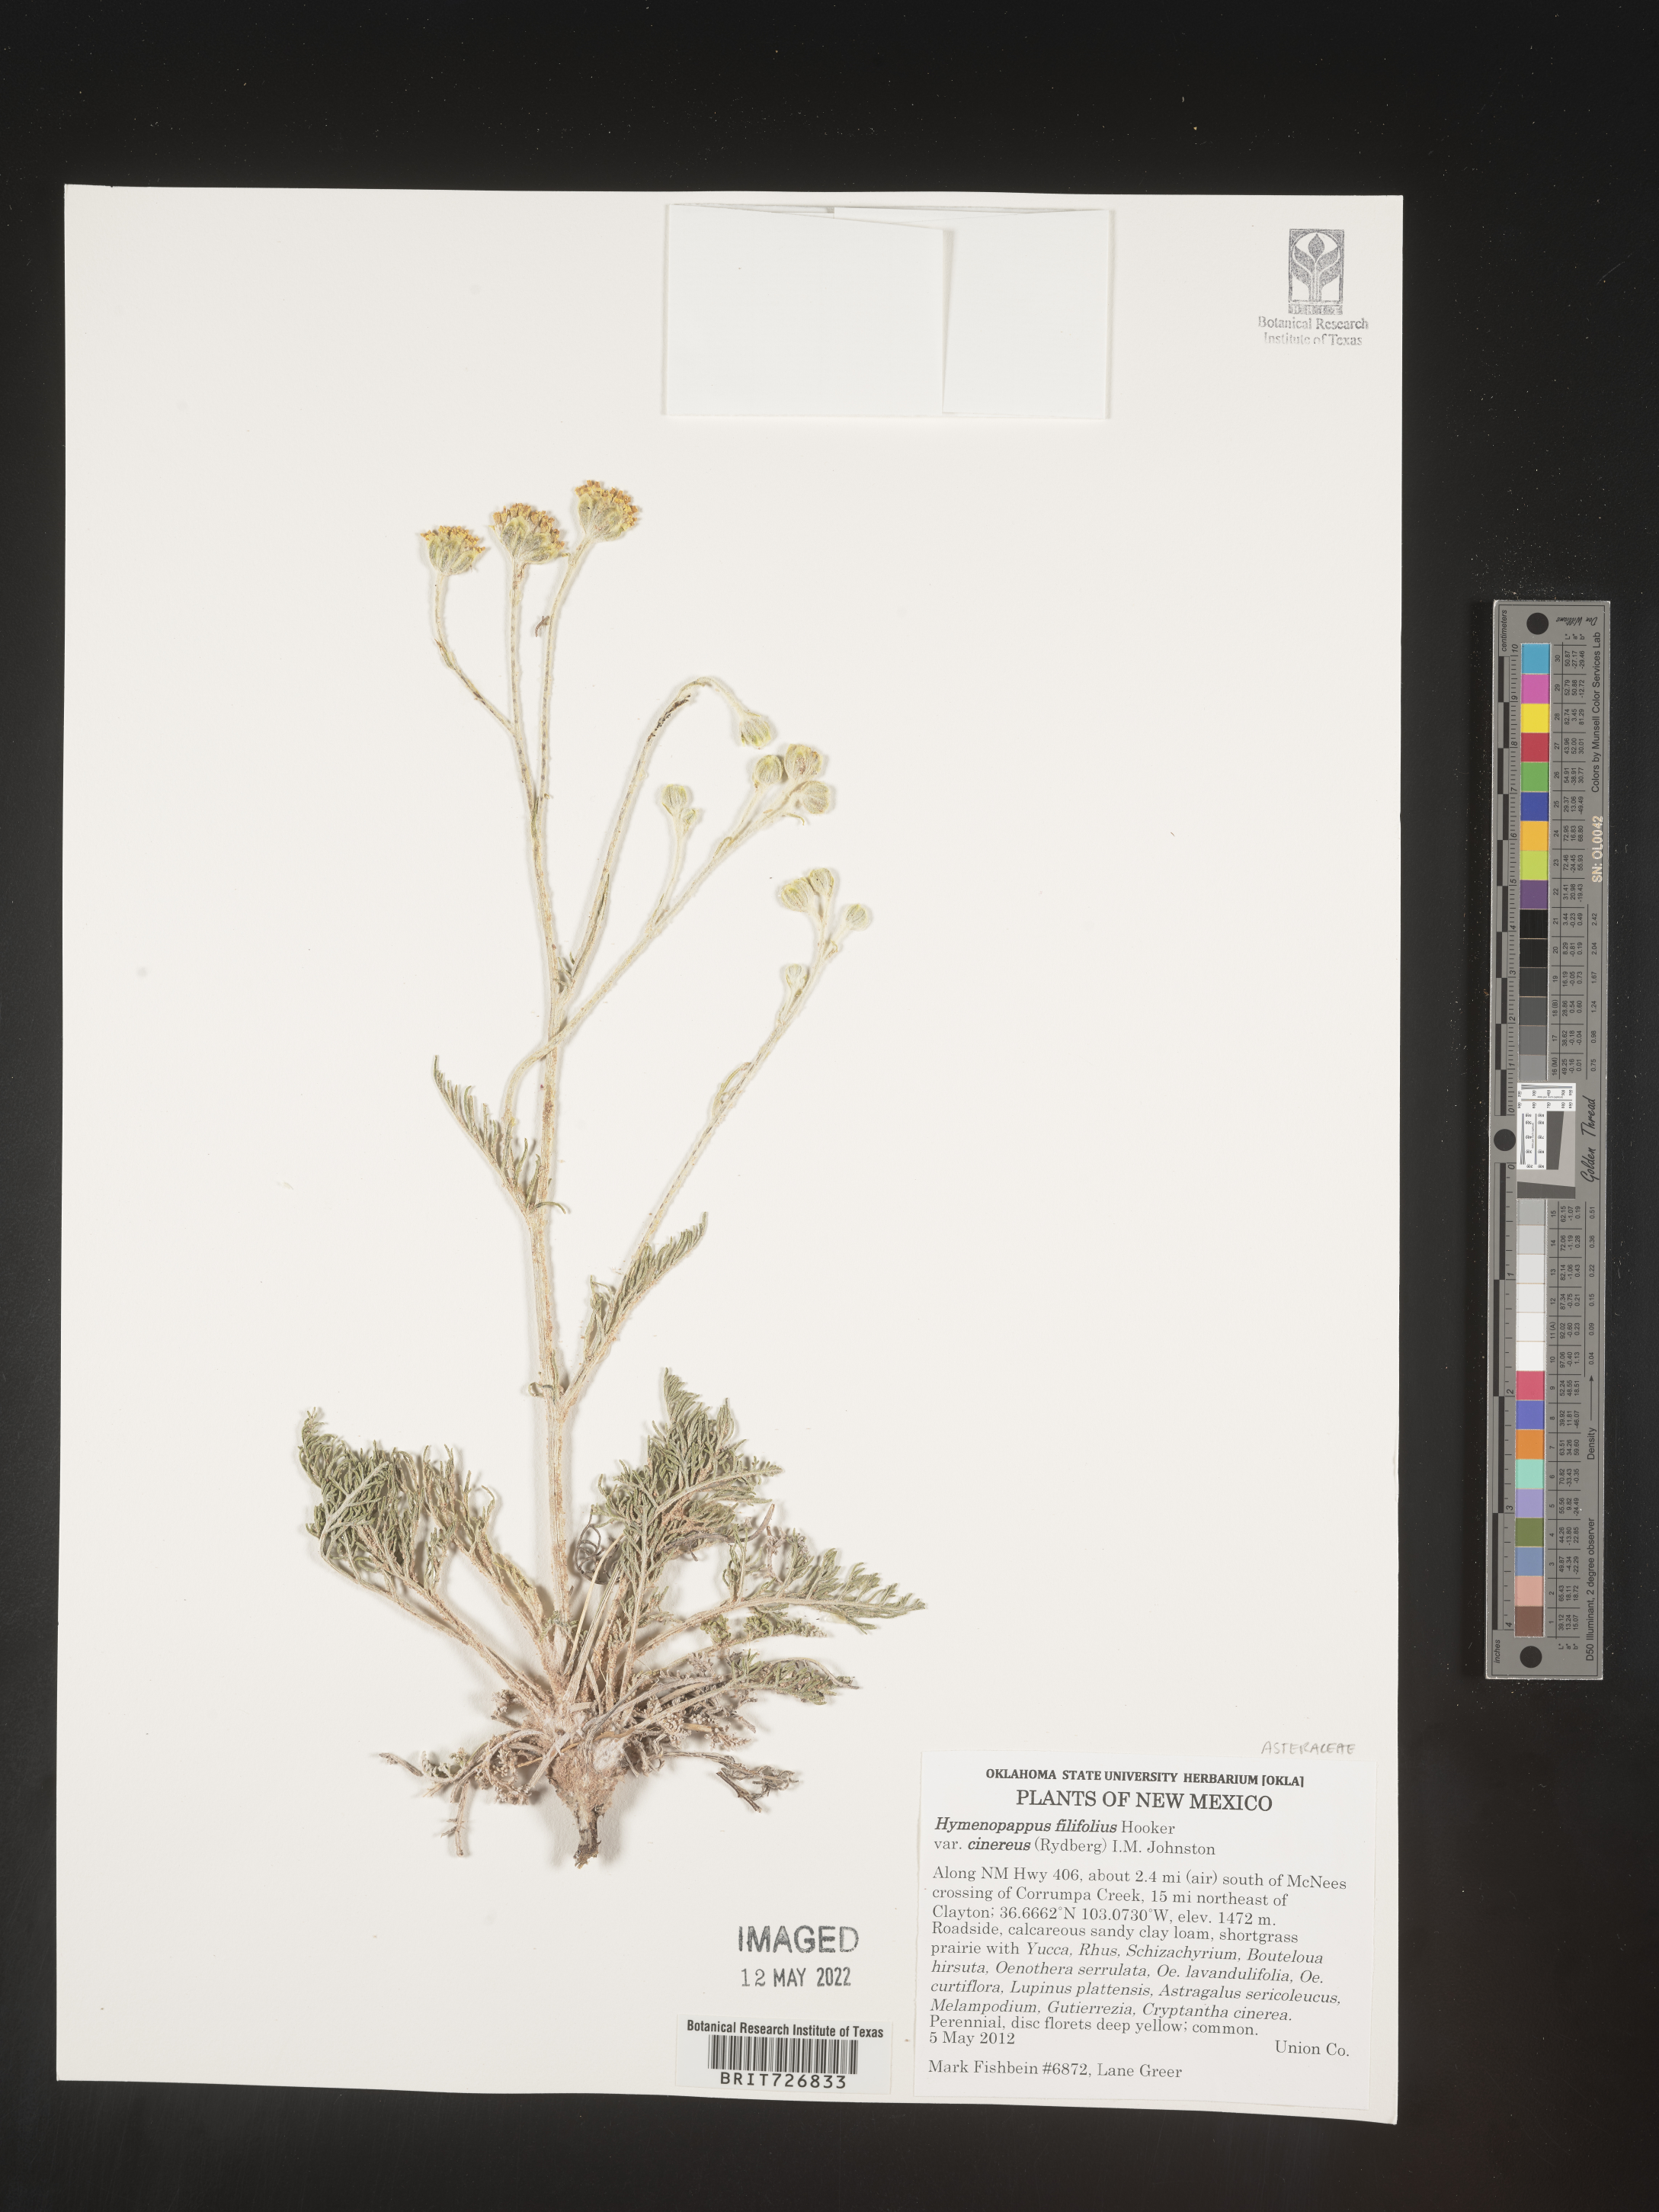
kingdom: Plantae
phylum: Tracheophyta
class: Magnoliopsida
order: Asterales
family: Asteraceae
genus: Hymenopappus
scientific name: Hymenopappus filifolius
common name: Columbia cutleaf
